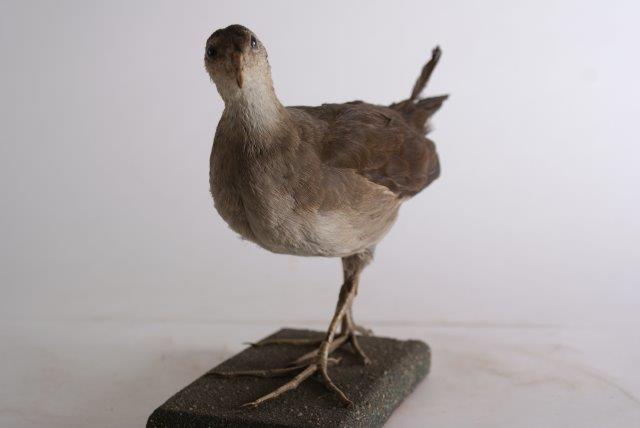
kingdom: Animalia
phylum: Chordata
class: Aves
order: Gruiformes
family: Rallidae
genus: Gallinula
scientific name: Gallinula chloropus
